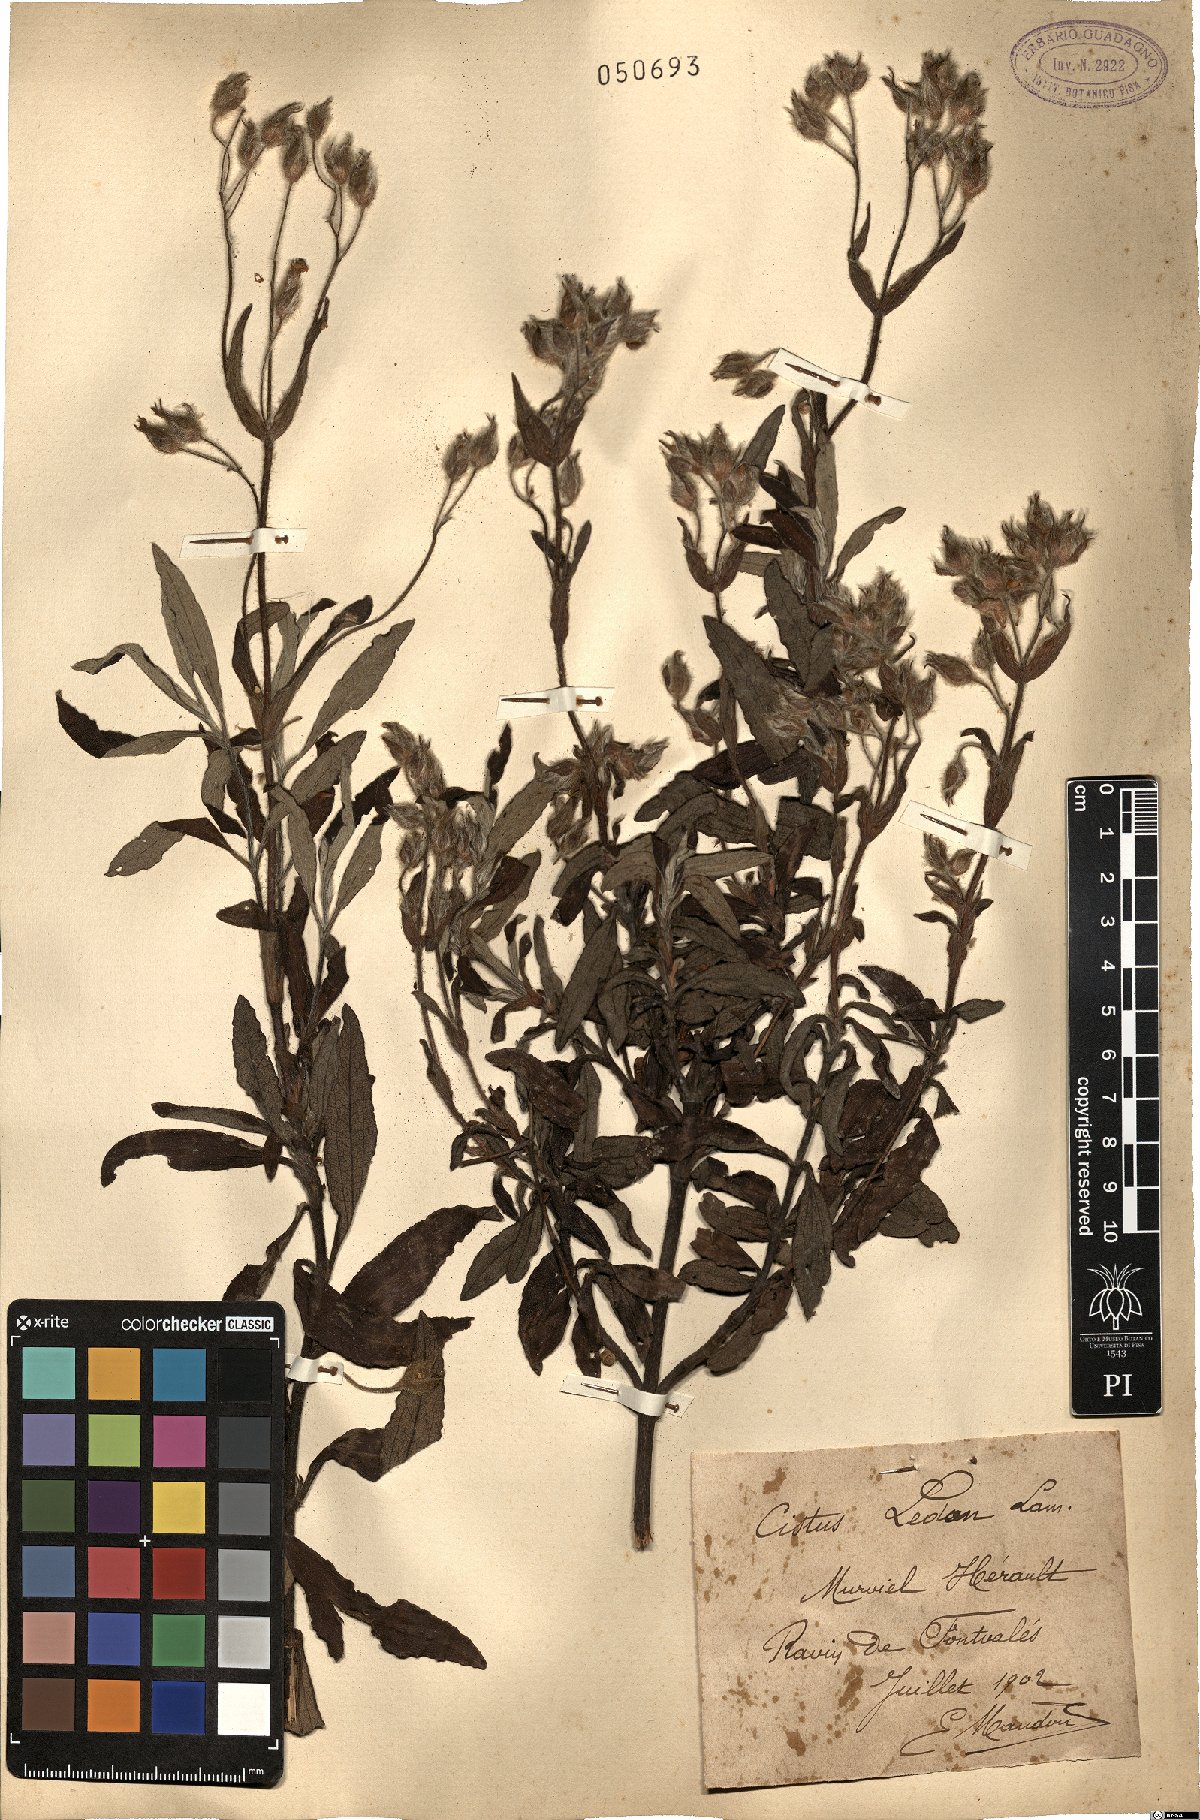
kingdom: Plantae
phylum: Tracheophyta
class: Magnoliopsida
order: Malvales
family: Cistaceae
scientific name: Cistaceae
